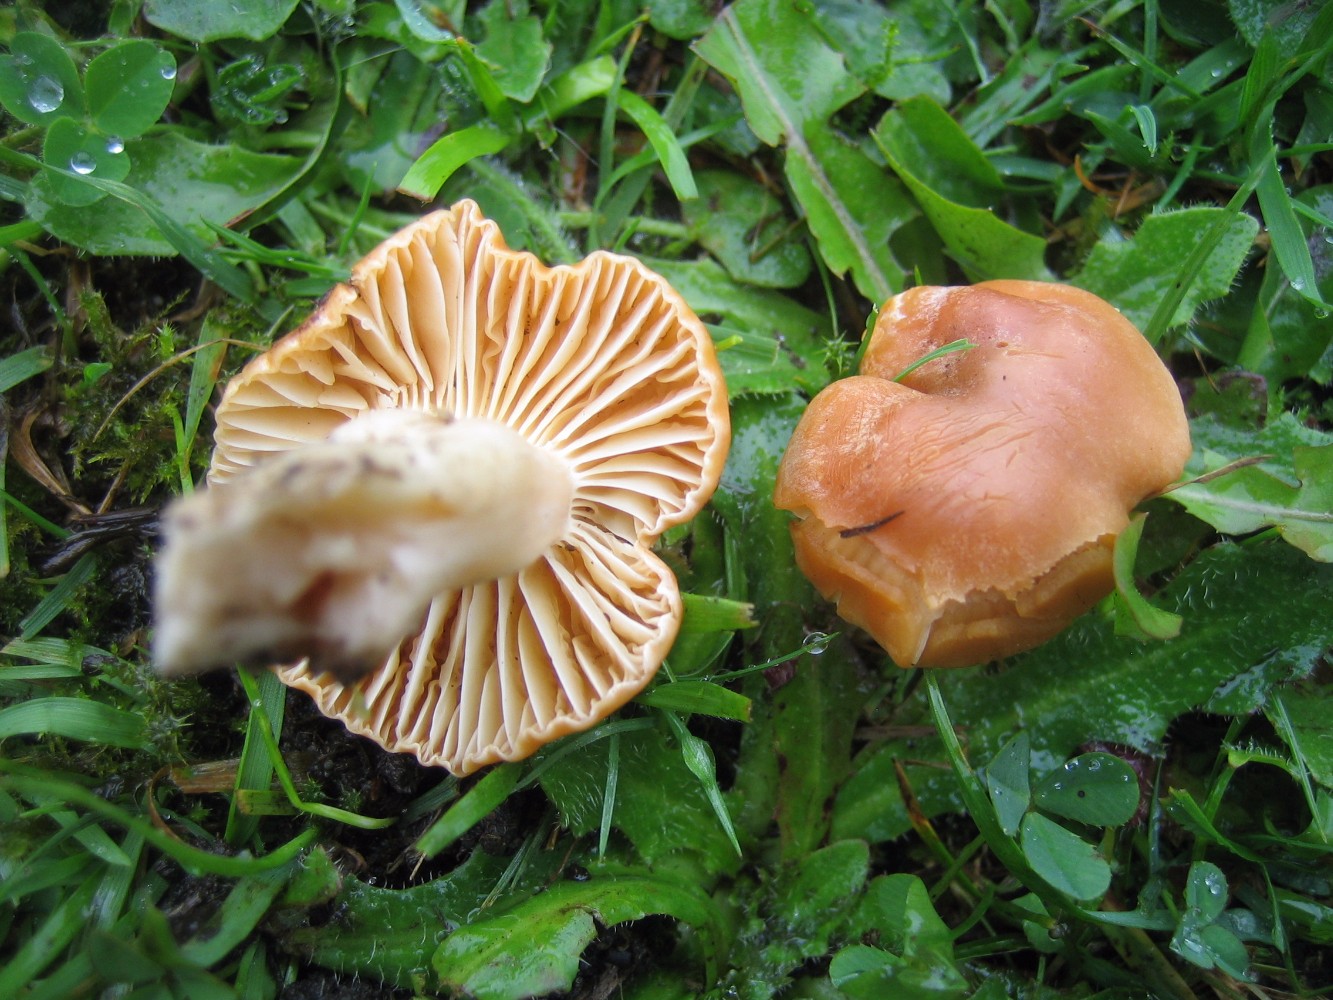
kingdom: Fungi
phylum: Basidiomycota
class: Agaricomycetes
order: Agaricales
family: Hygrophoraceae
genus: Cuphophyllus
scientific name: Cuphophyllus pratensis
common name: eng-vokshat
